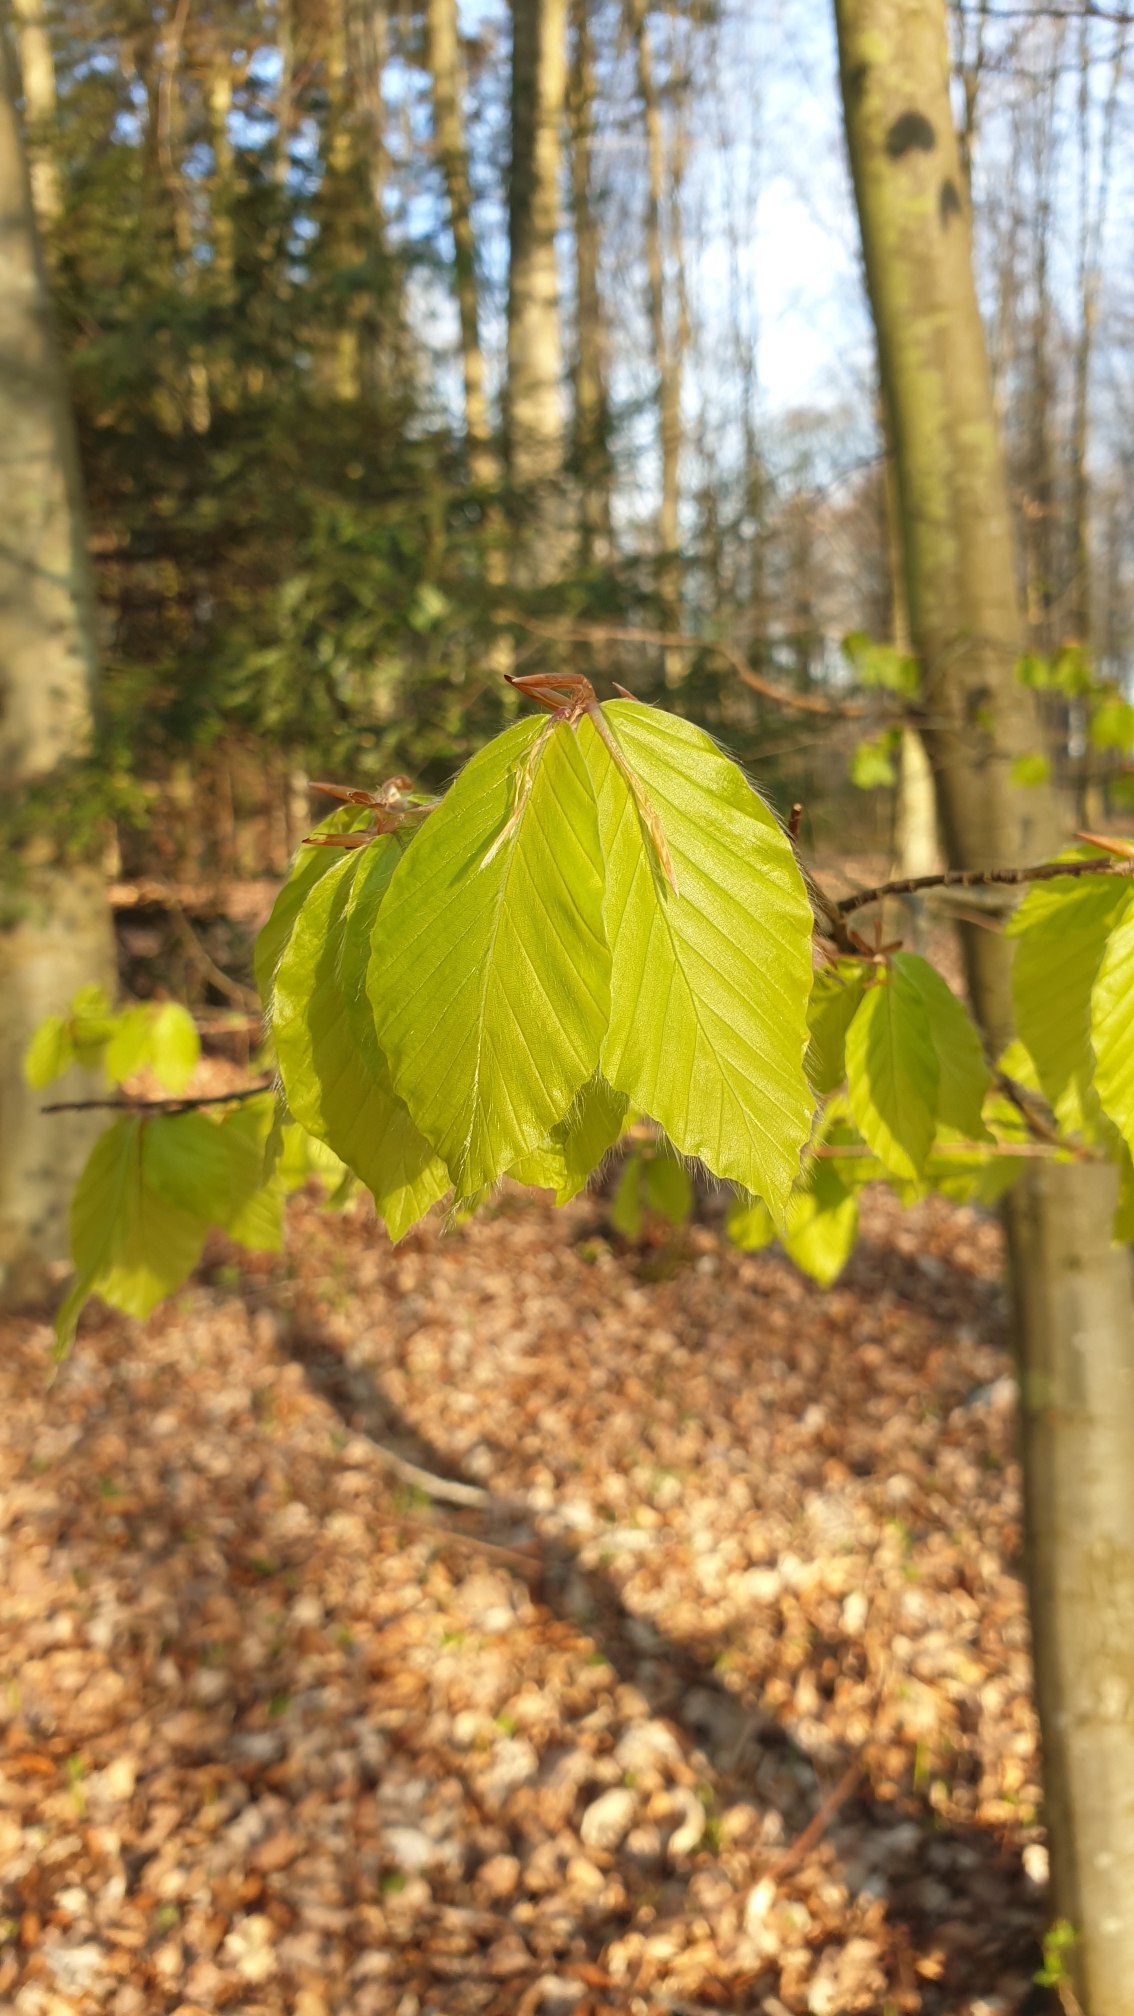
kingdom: Plantae
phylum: Tracheophyta
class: Magnoliopsida
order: Fagales
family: Fagaceae
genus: Fagus
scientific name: Fagus sylvatica
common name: Bøg
